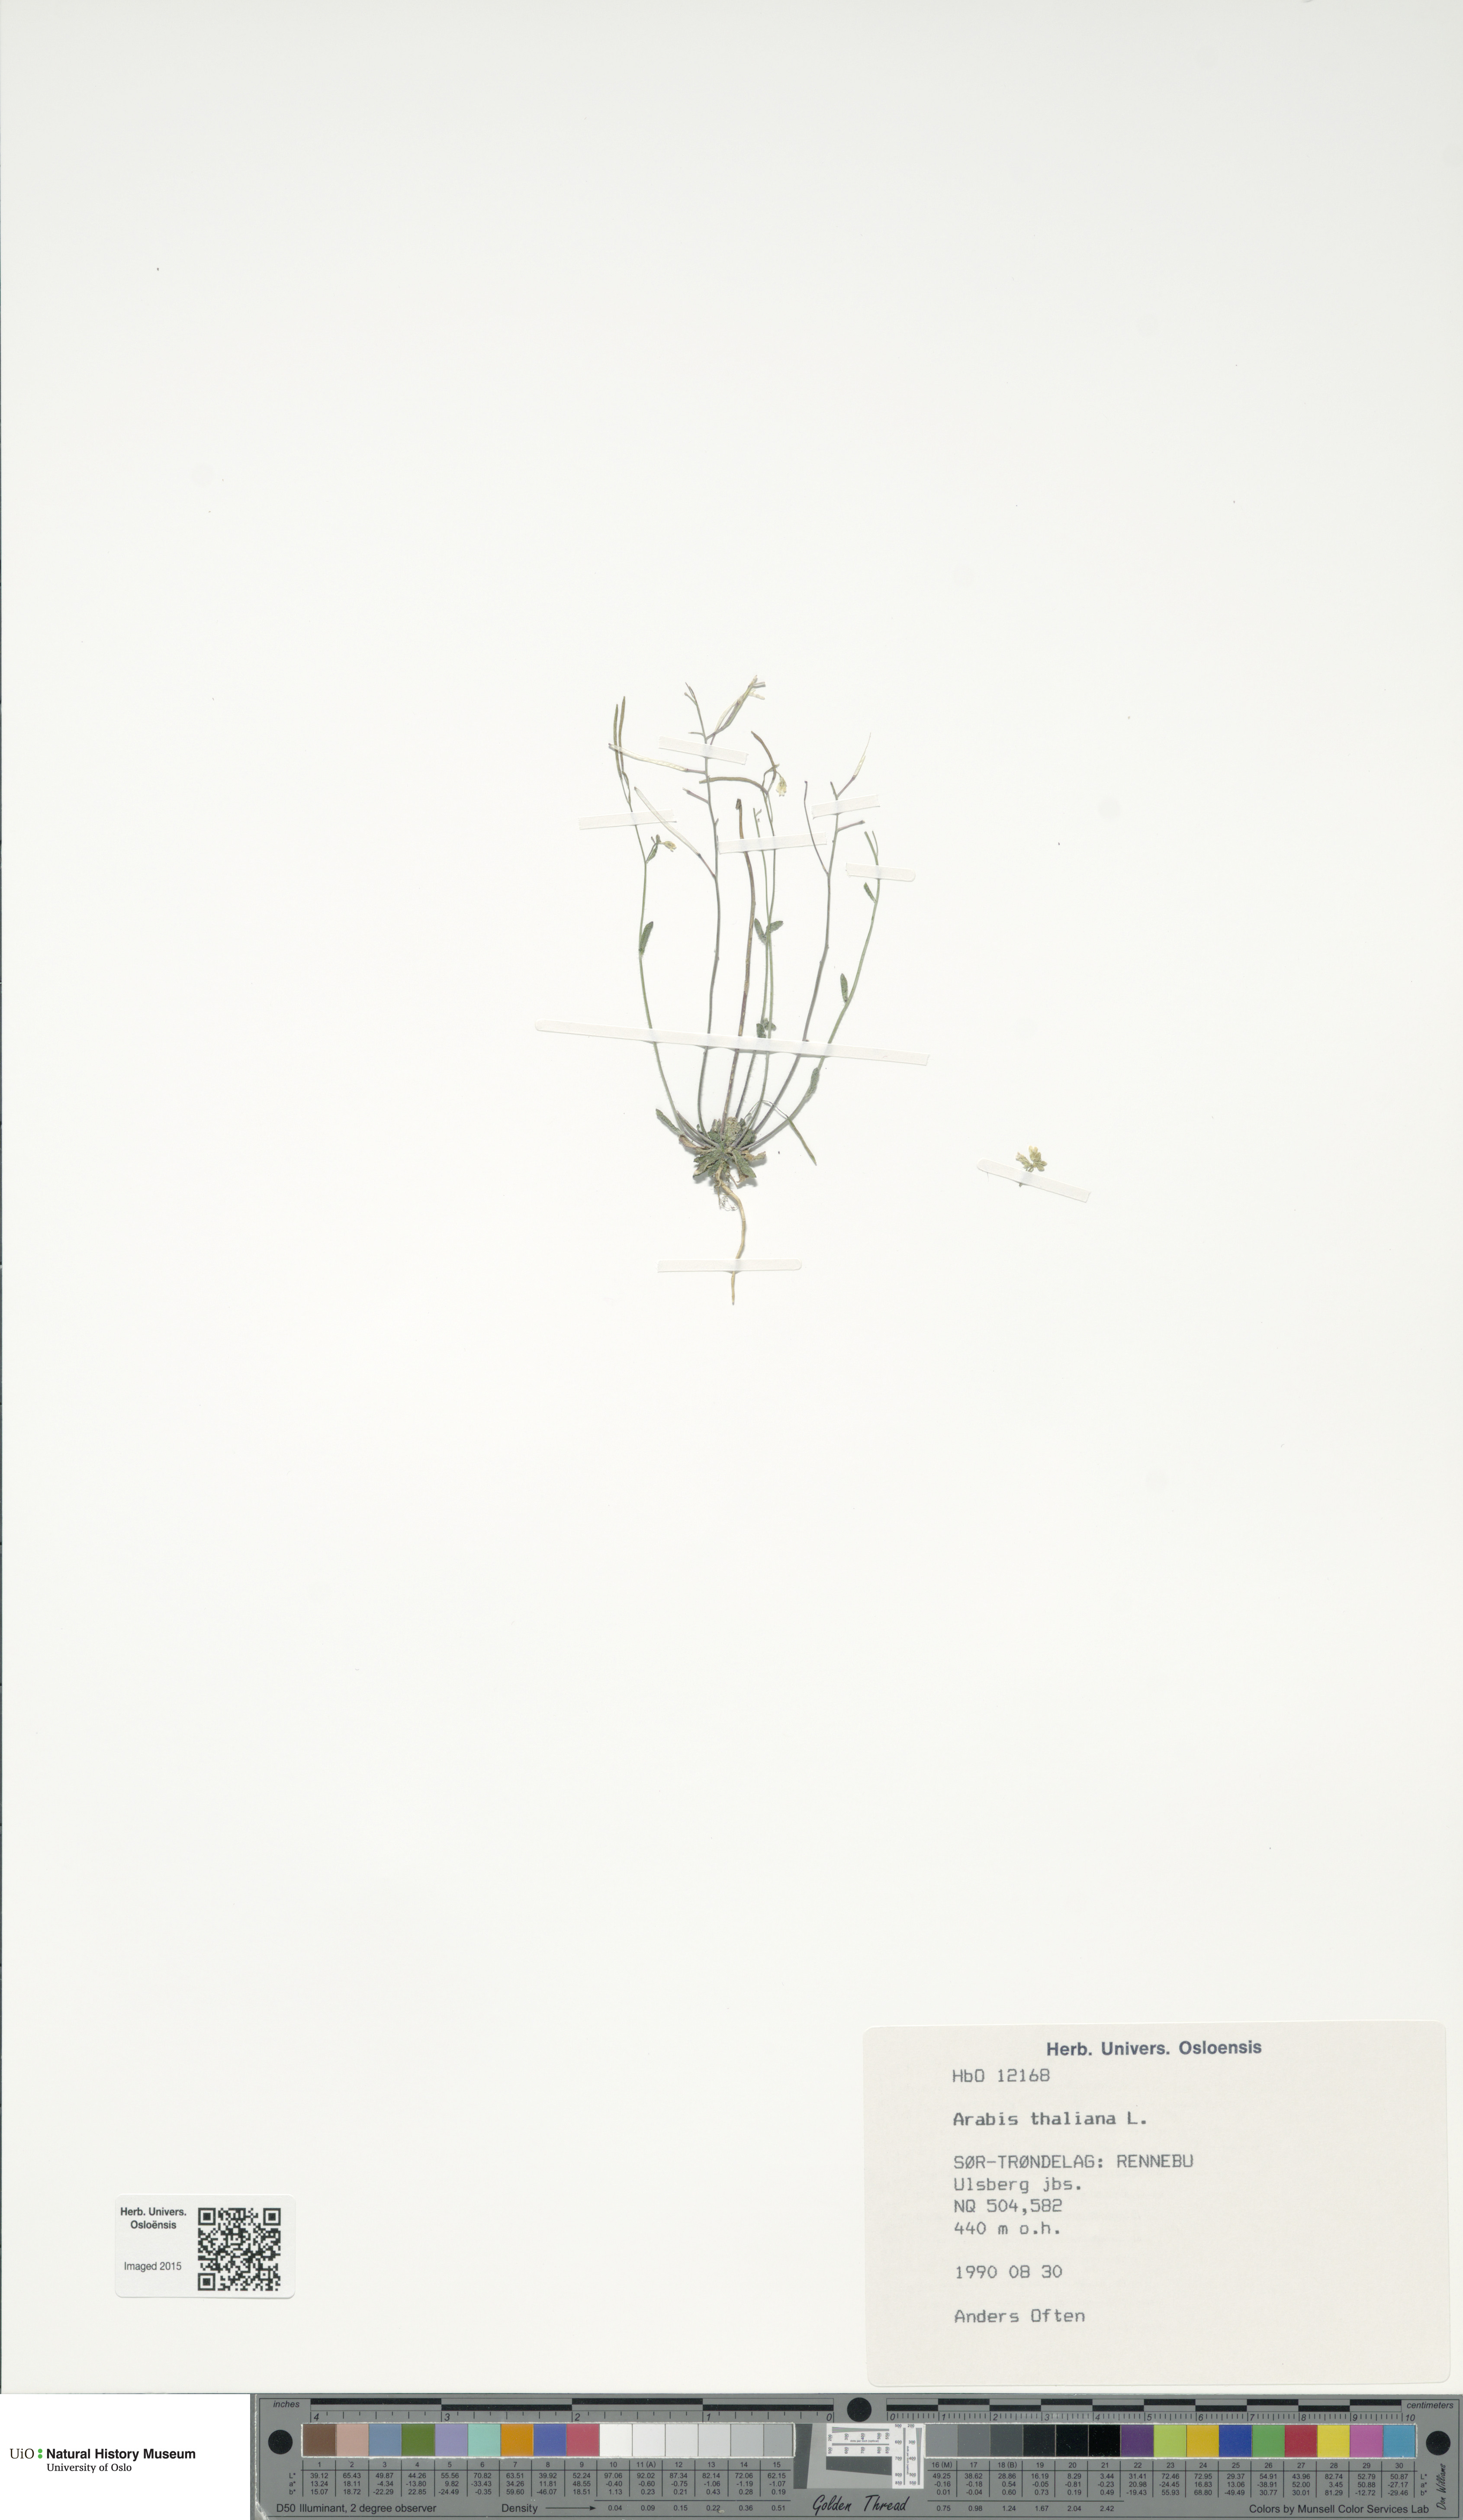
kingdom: Plantae
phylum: Tracheophyta
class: Magnoliopsida
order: Brassicales
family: Brassicaceae
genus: Arabidopsis
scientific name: Arabidopsis thaliana
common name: Thale cress
